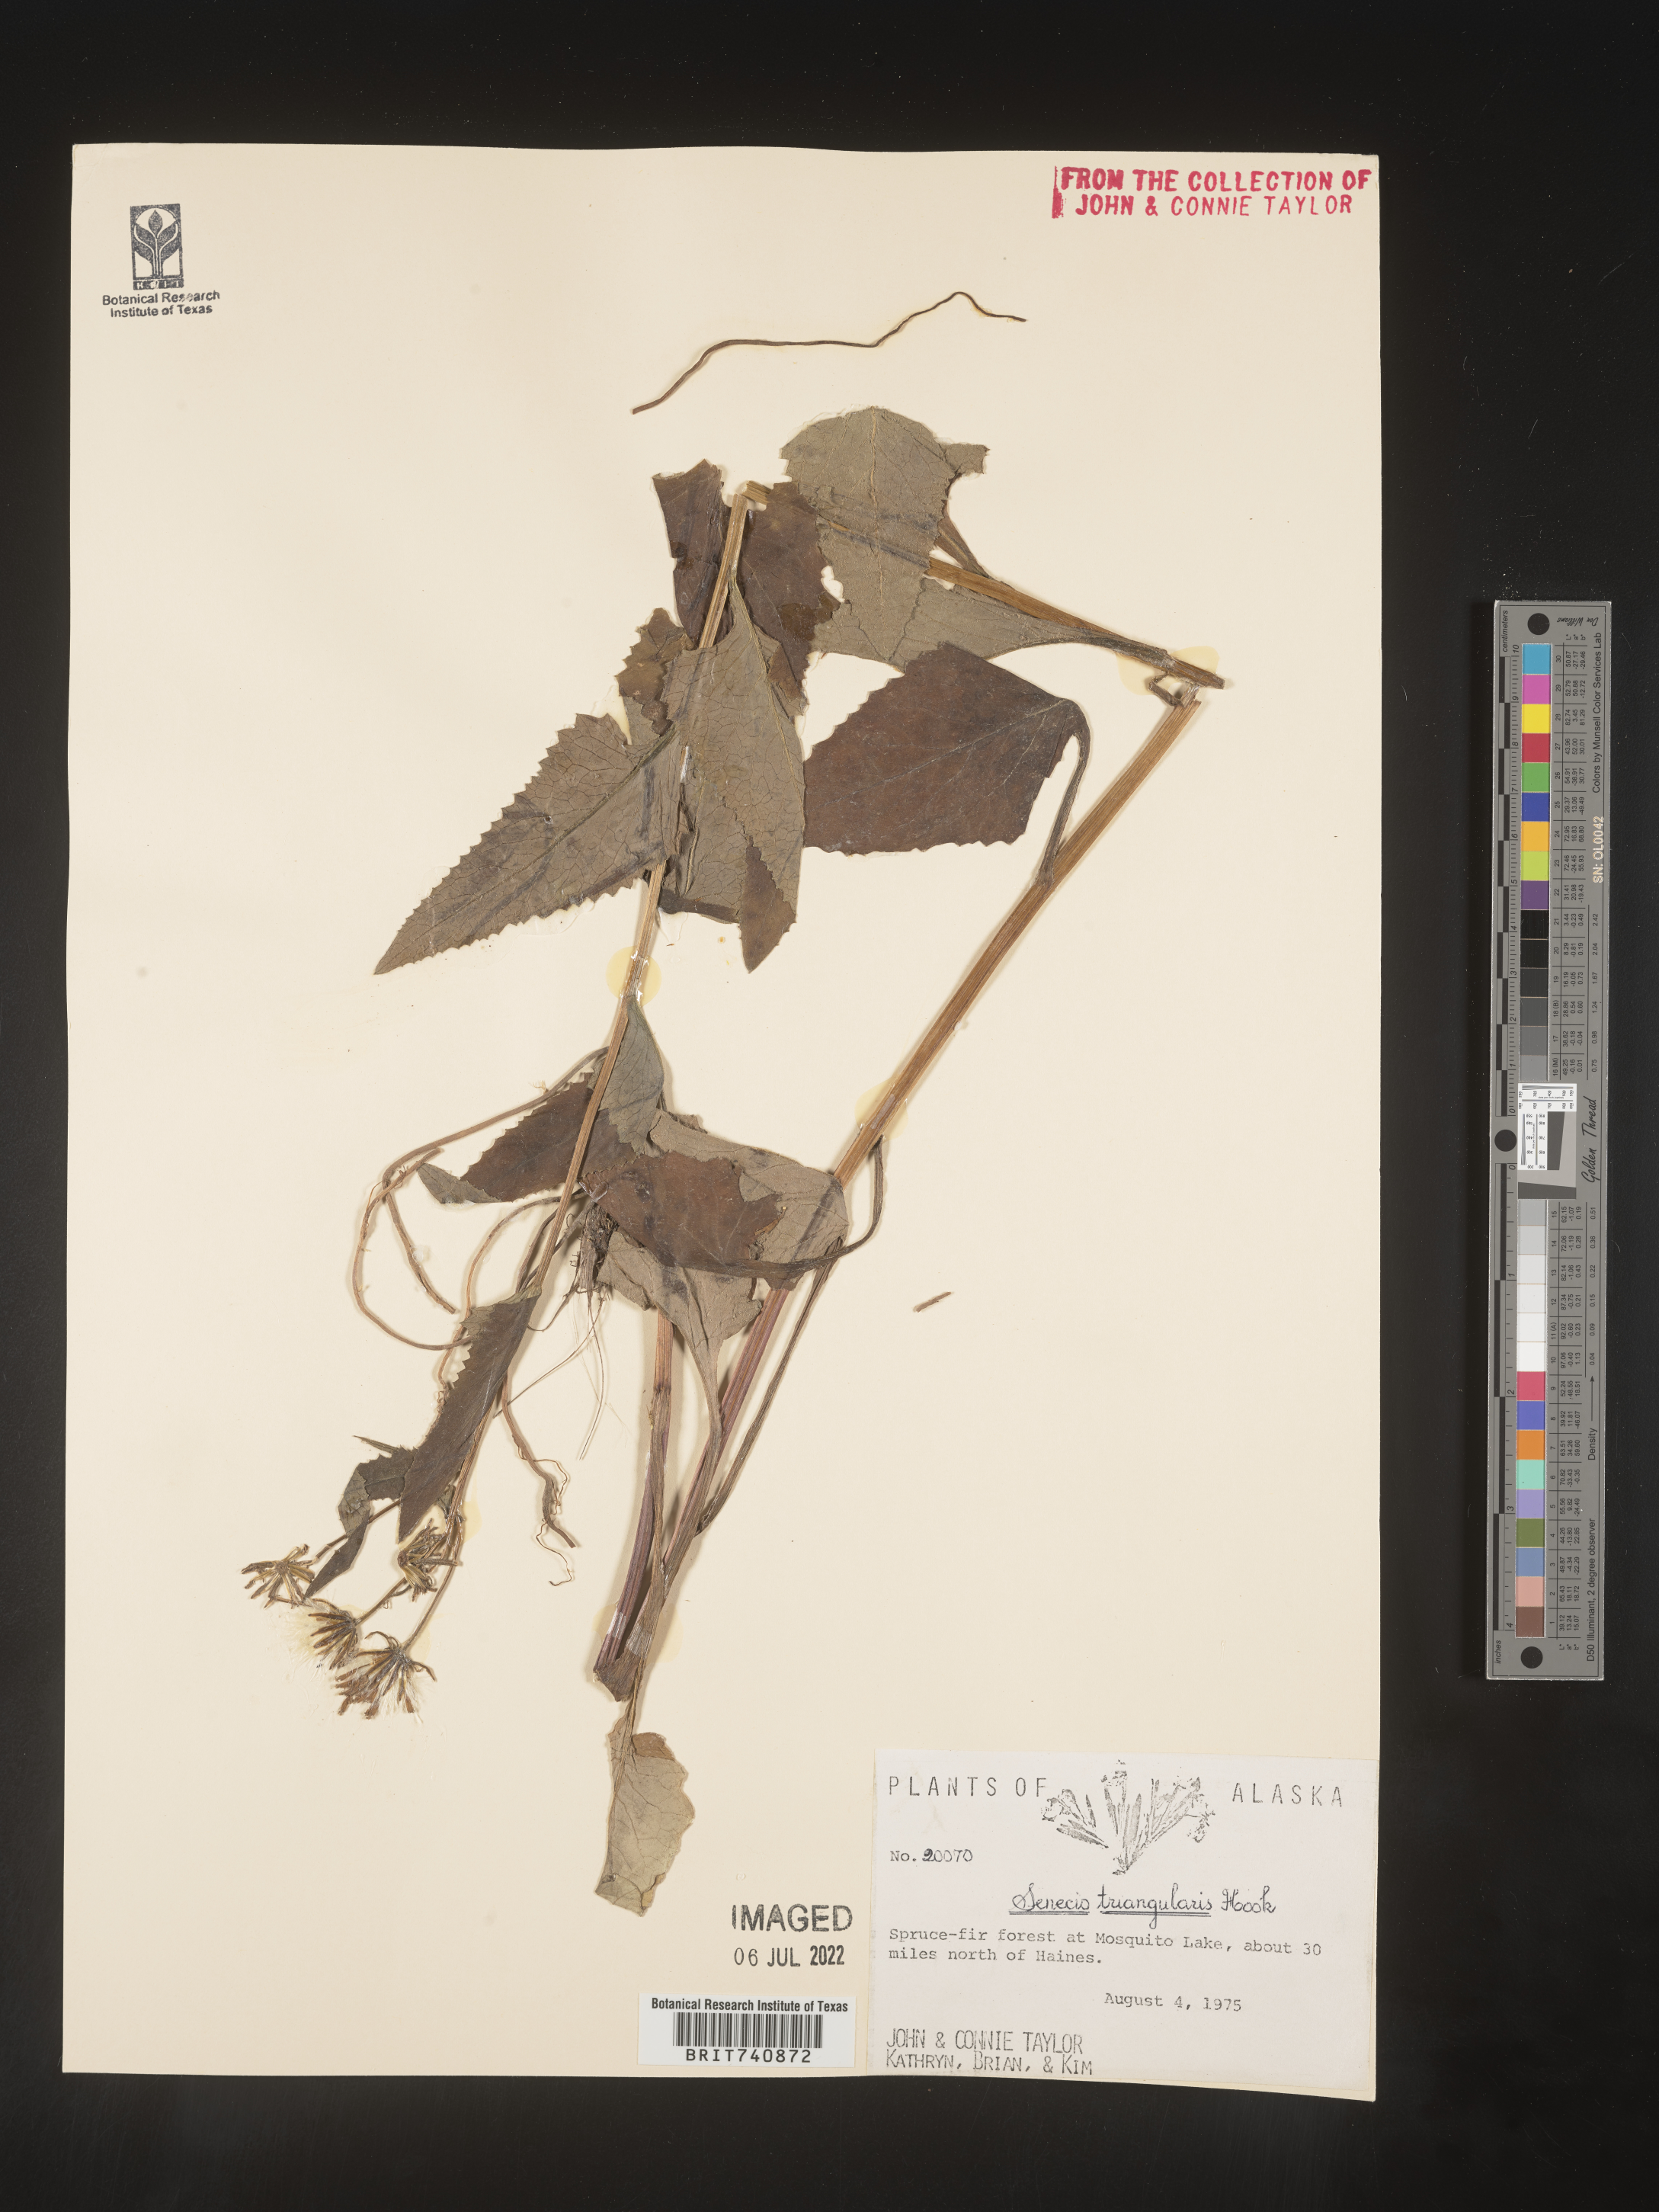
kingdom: Plantae
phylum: Tracheophyta
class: Magnoliopsida
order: Asterales
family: Asteraceae
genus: Senecio
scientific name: Senecio triangularis
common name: Arrowleaf butterweed
